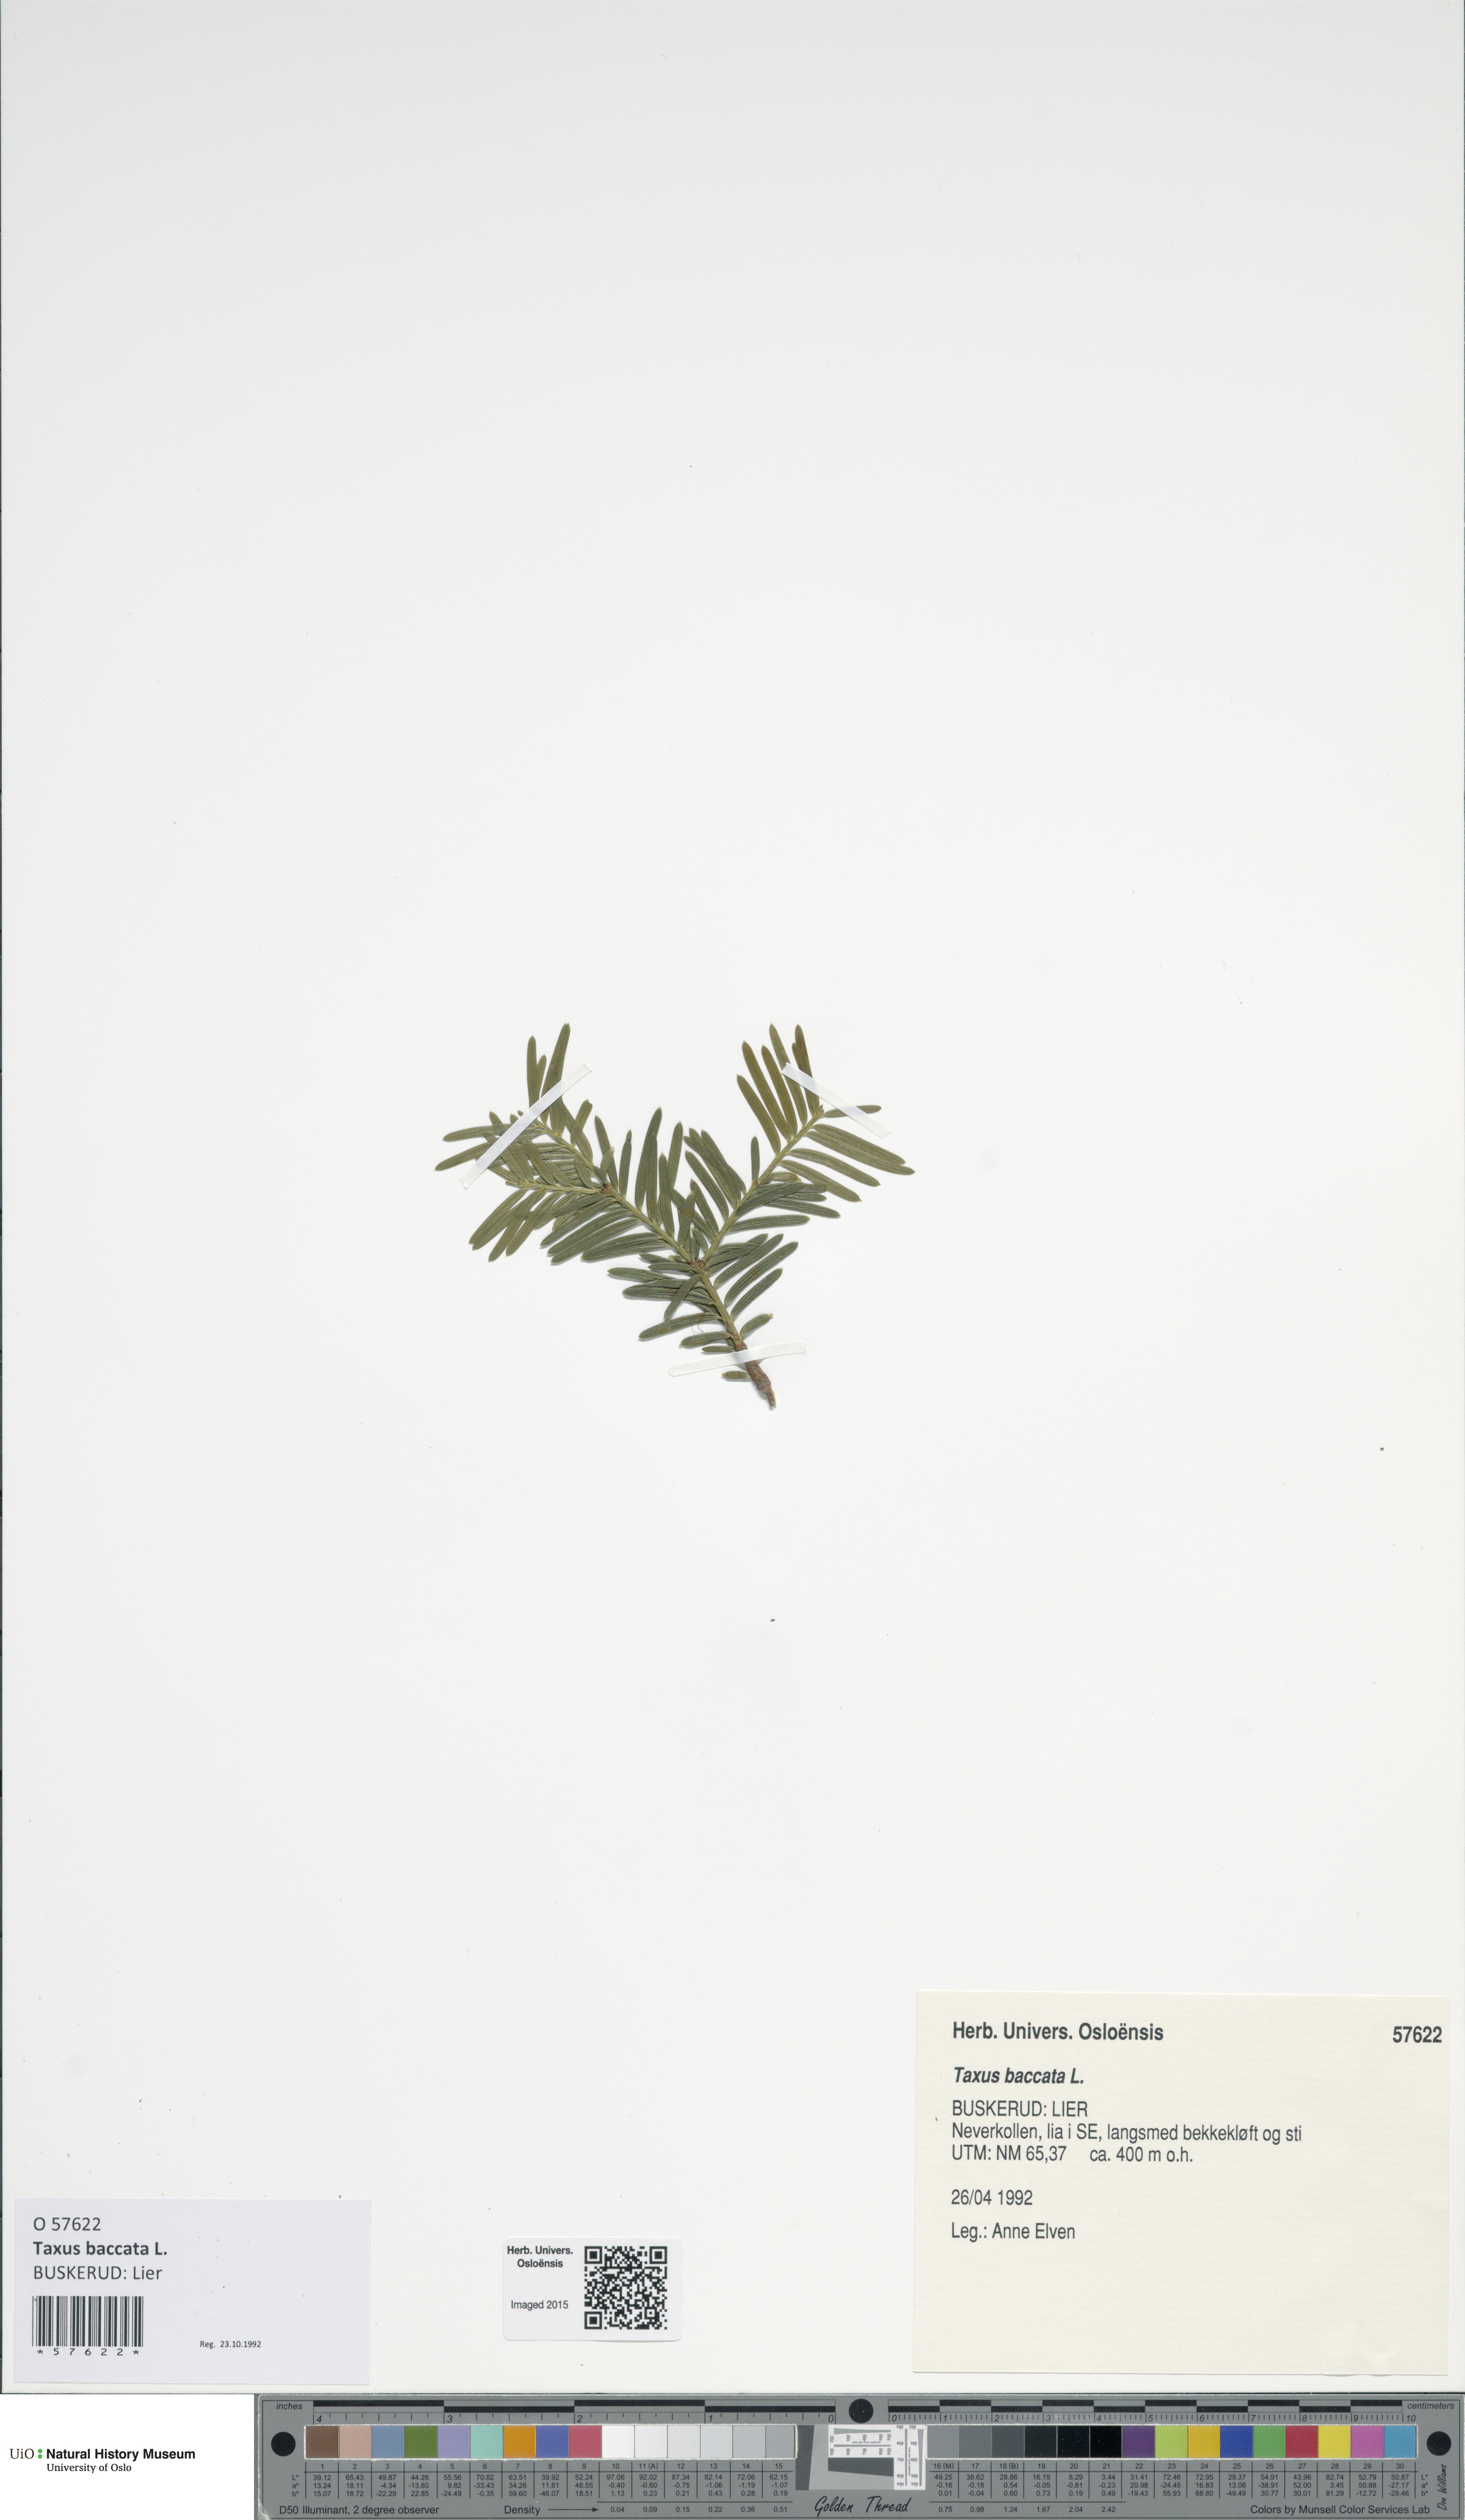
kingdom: Plantae
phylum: Tracheophyta
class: Pinopsida
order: Pinales
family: Taxaceae
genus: Taxus
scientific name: Taxus baccata
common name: Yew
